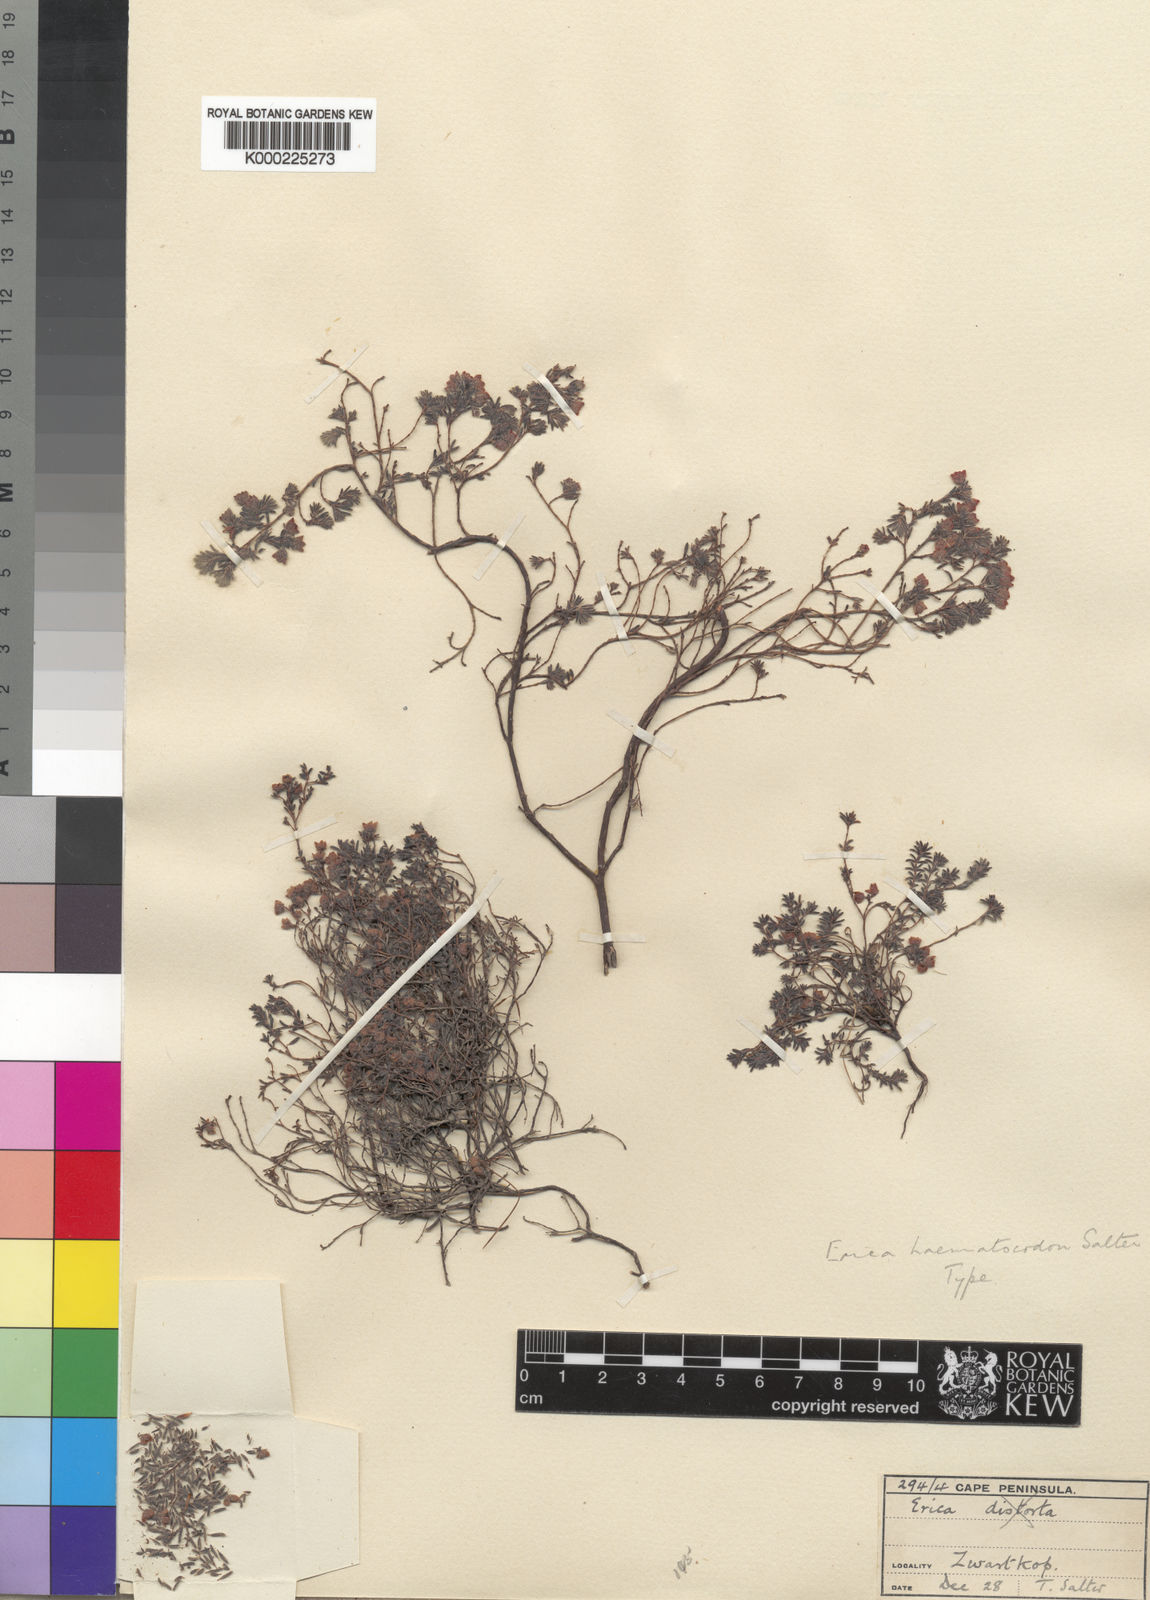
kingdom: Plantae
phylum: Tracheophyta
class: Magnoliopsida
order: Ericales
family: Ericaceae
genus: Erica
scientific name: Erica haematocodon
